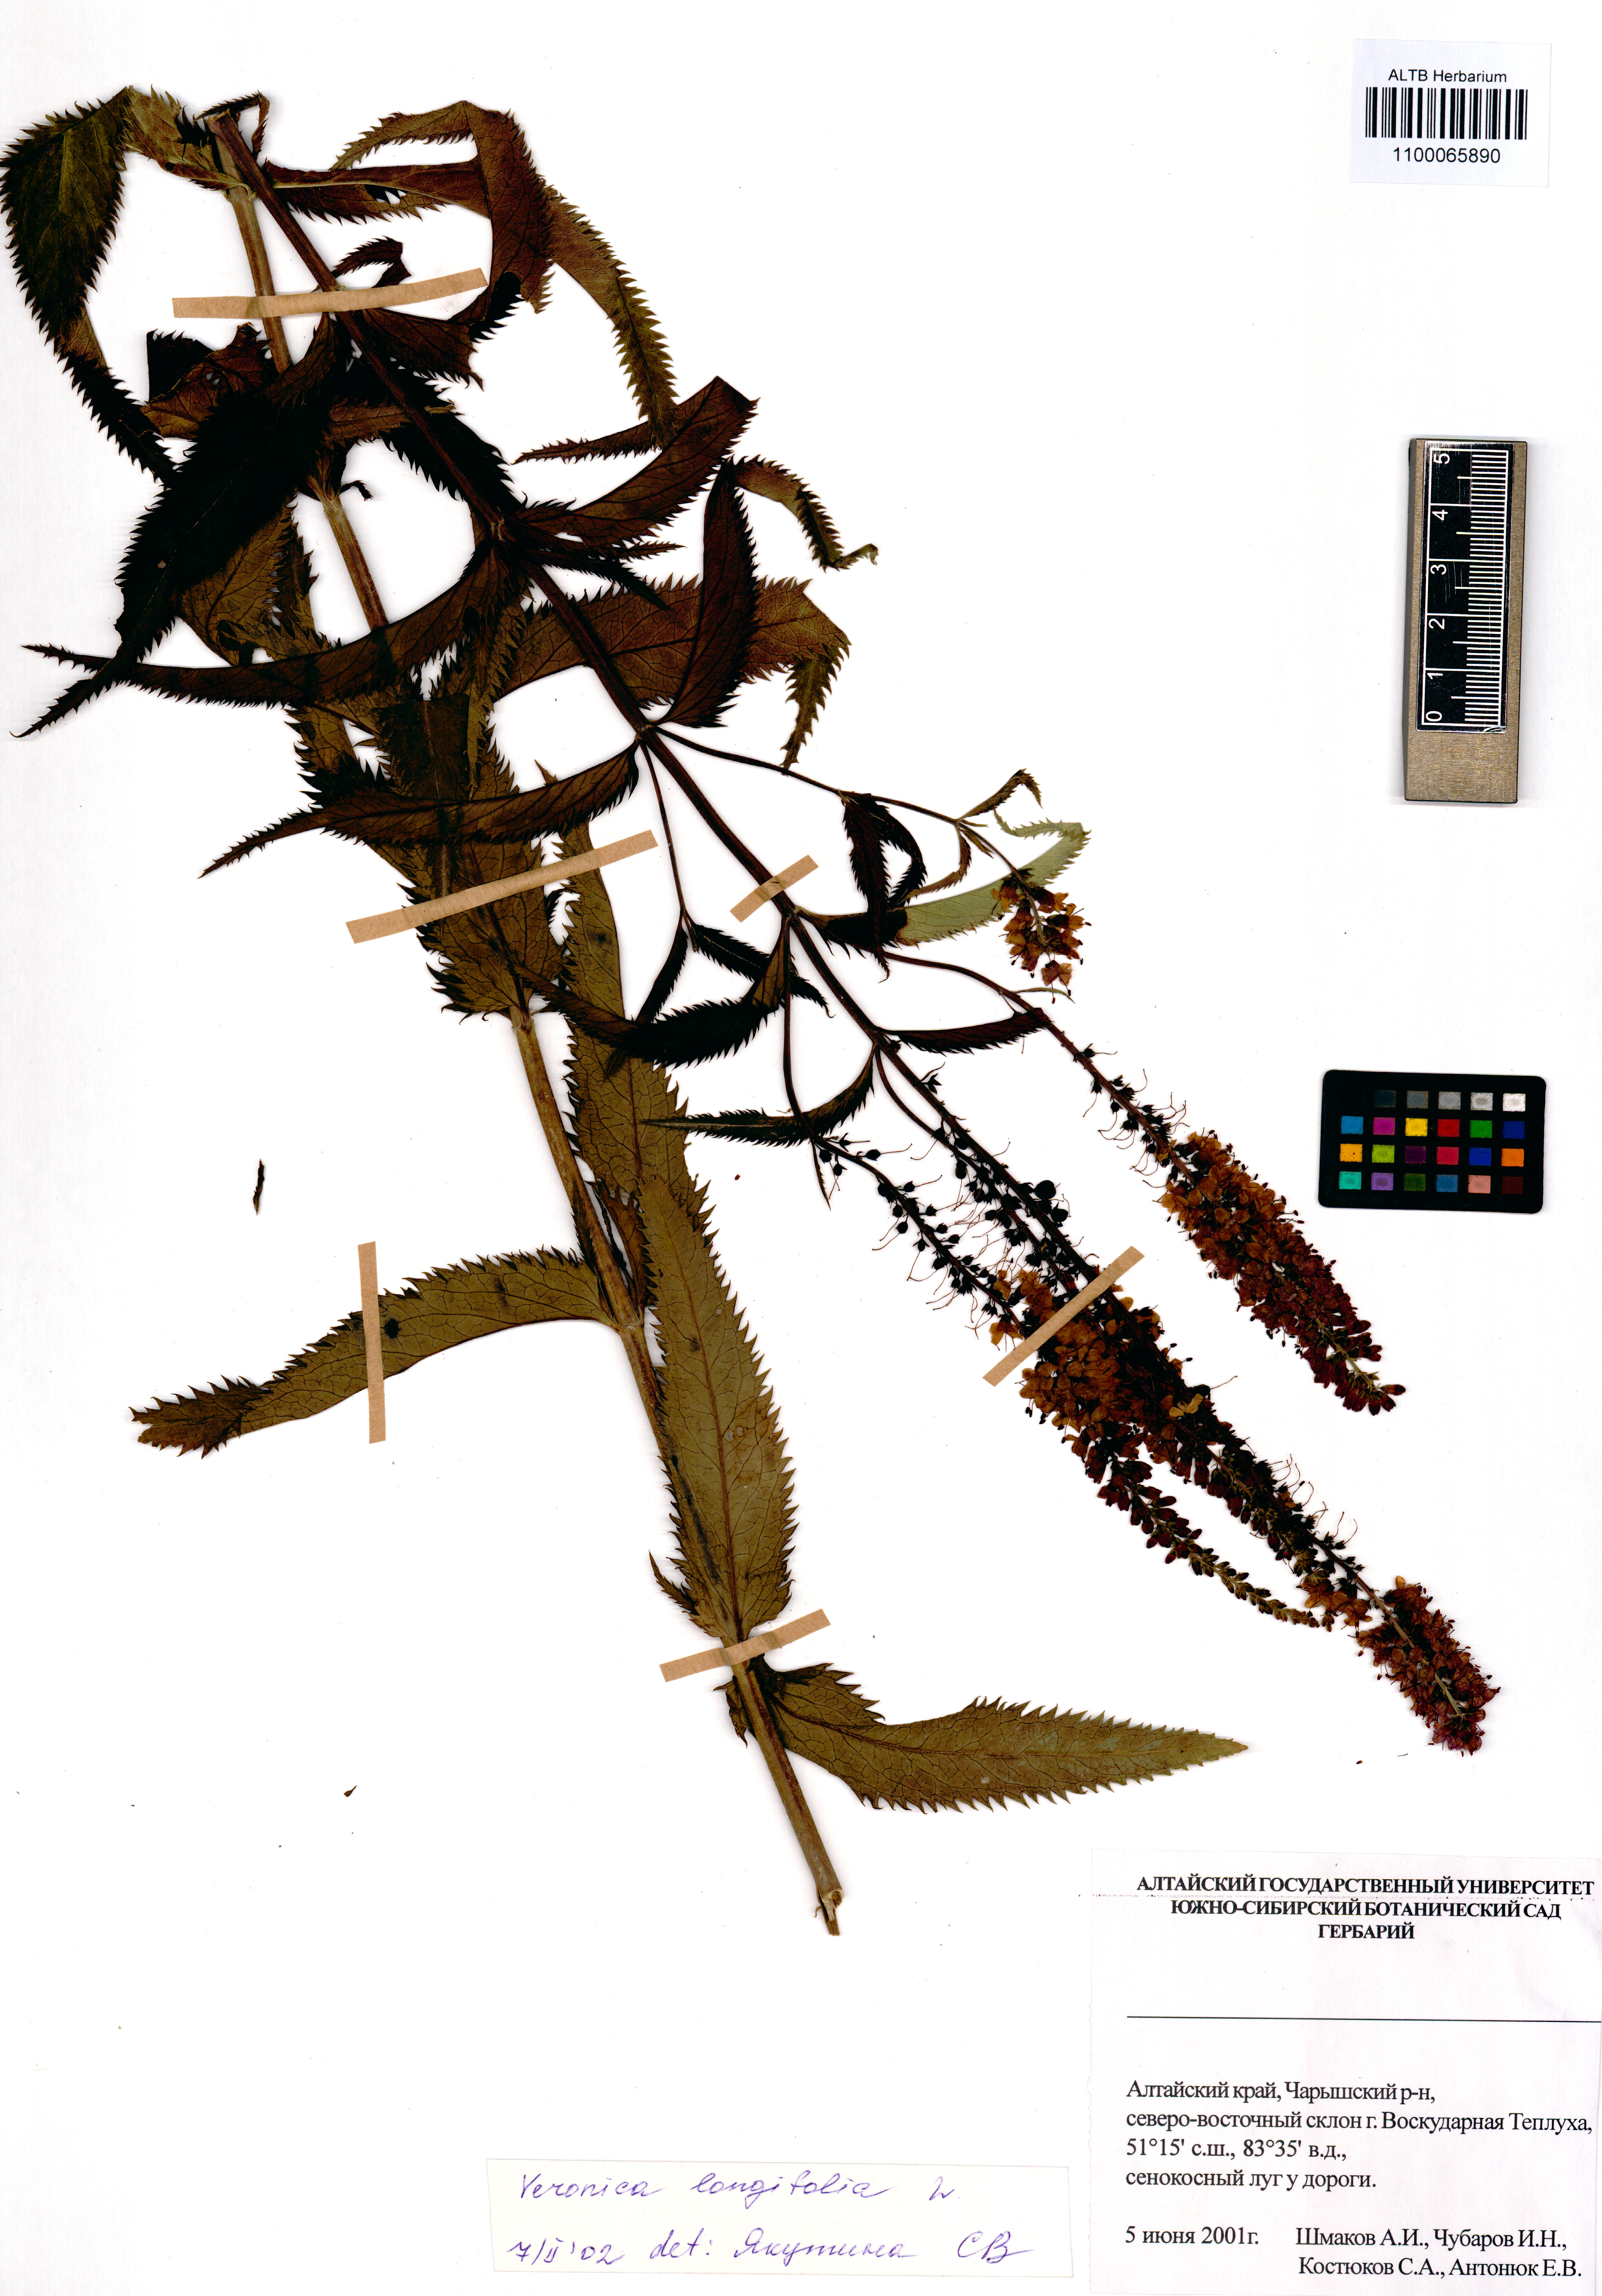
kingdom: Plantae
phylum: Tracheophyta
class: Magnoliopsida
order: Lamiales
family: Plantaginaceae
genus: Veronica
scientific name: Veronica longifolia
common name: Garden speedwell
